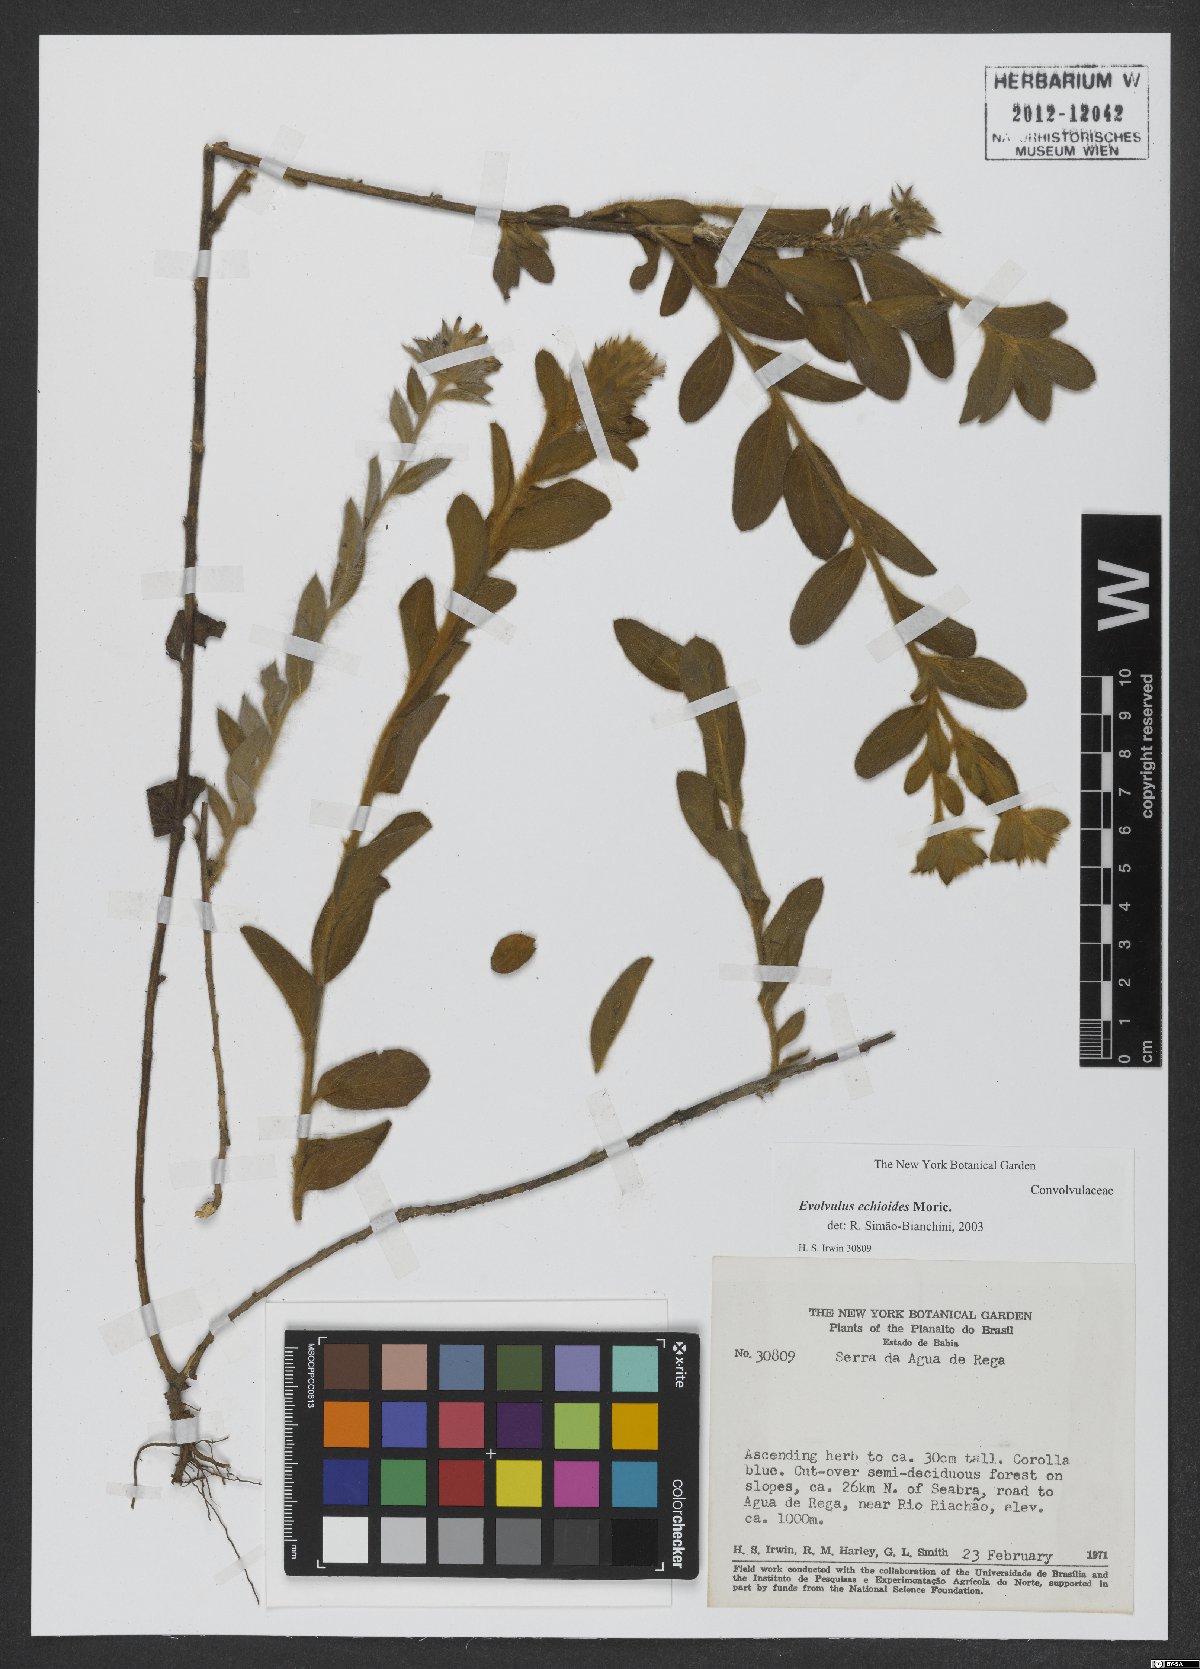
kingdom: Plantae
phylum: Tracheophyta
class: Magnoliopsida
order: Solanales
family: Convolvulaceae
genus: Evolvulus
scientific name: Evolvulus echioides
